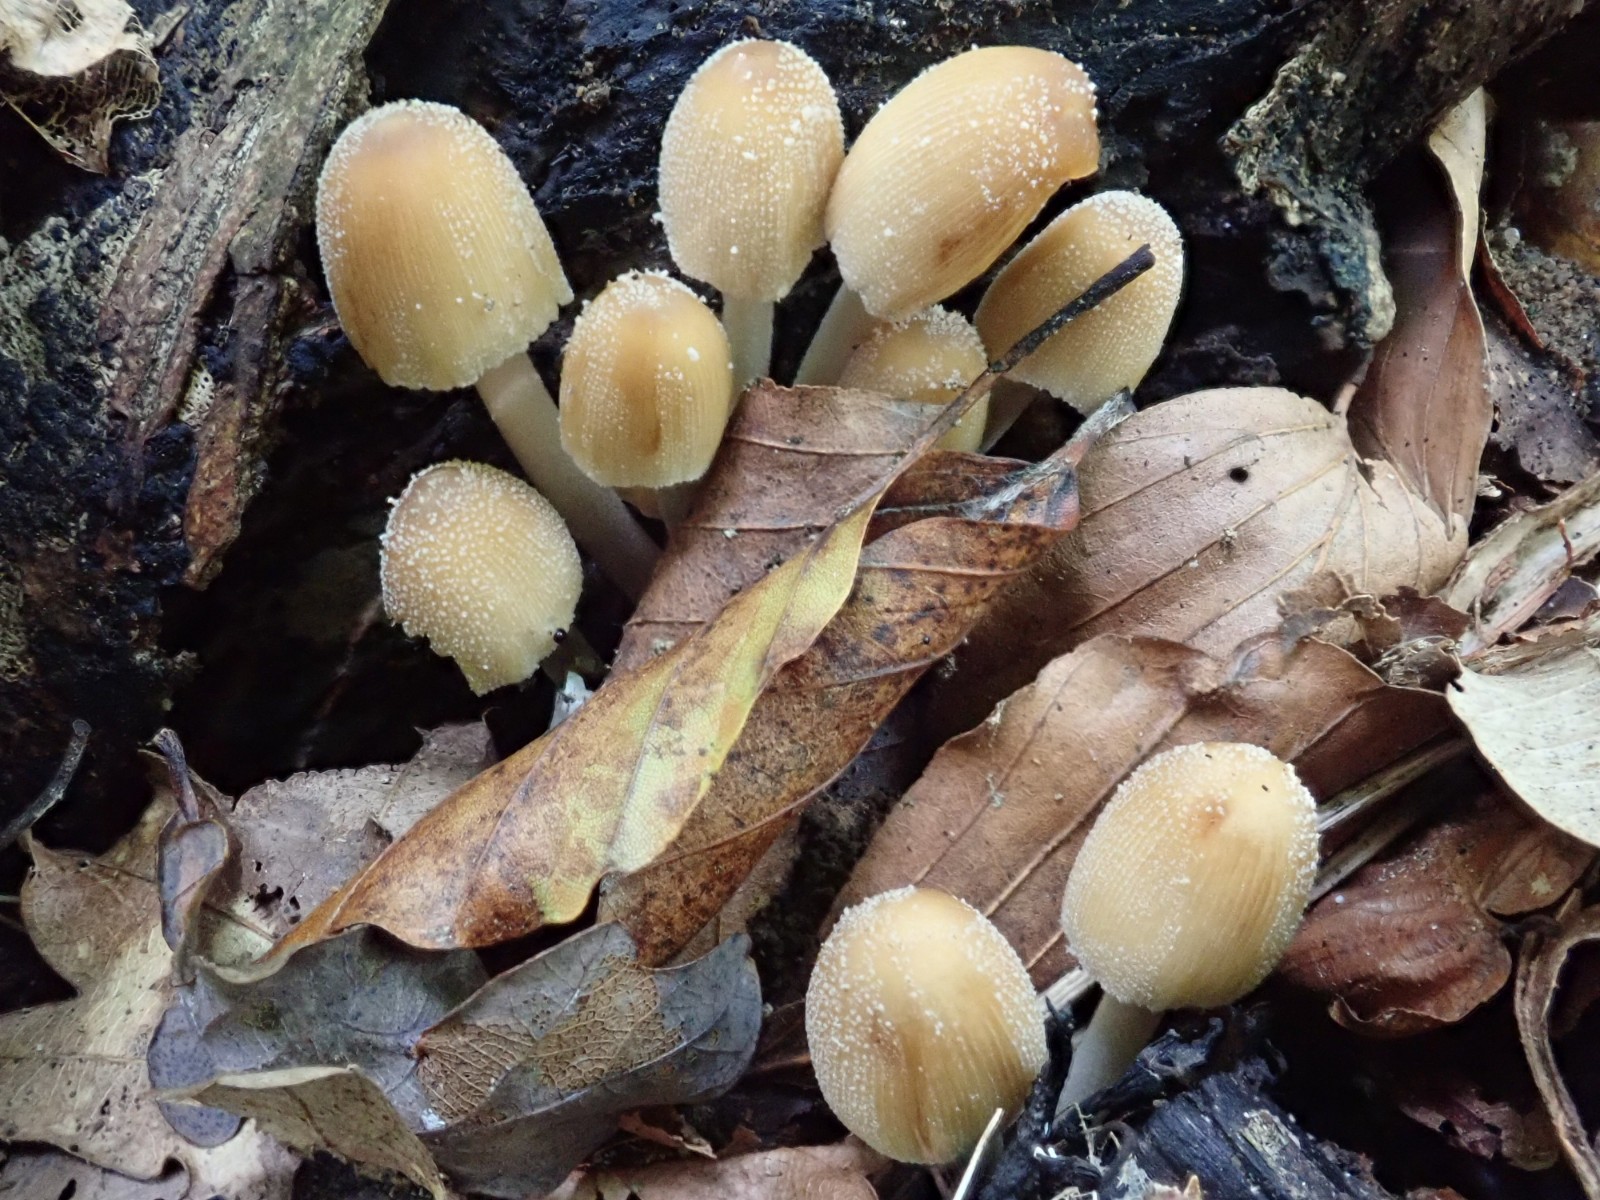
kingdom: Fungi
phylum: Basidiomycota
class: Agaricomycetes
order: Agaricales
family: Psathyrellaceae
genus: Coprinellus
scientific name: Coprinellus micaceus
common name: glimmer-blækhat
